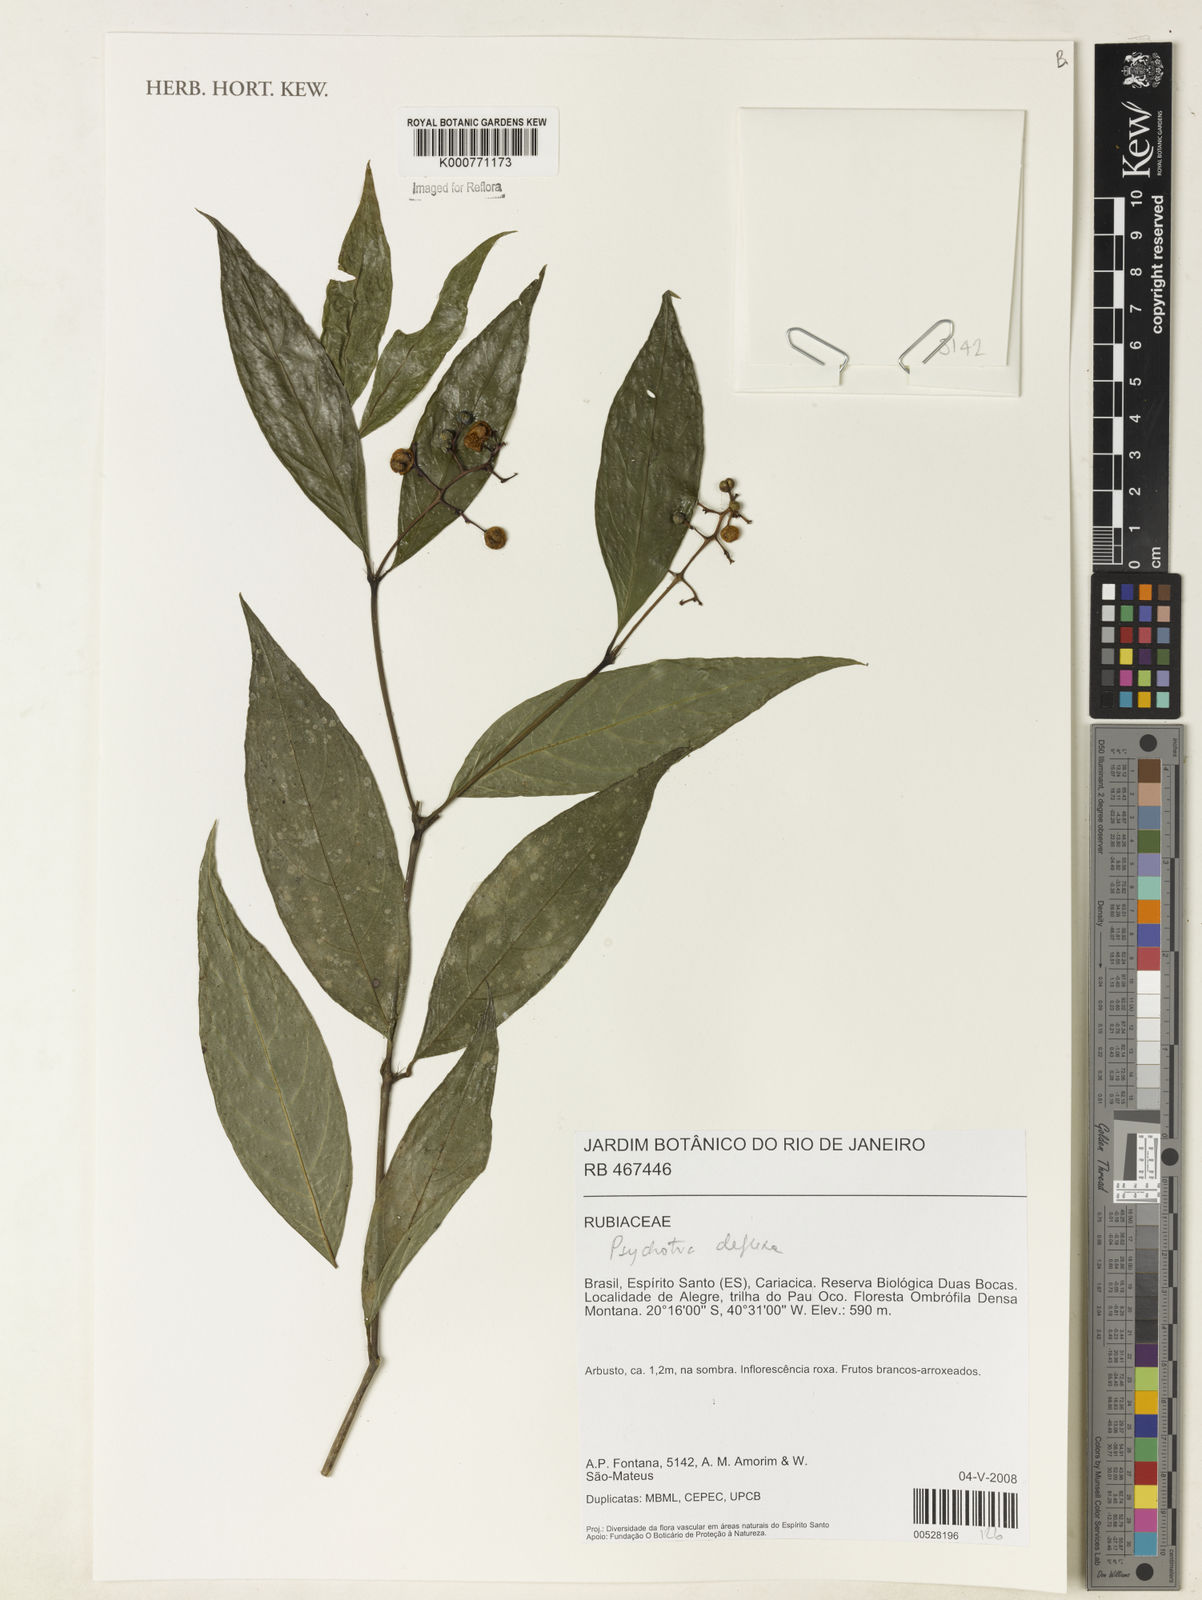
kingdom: Plantae
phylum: Tracheophyta
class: Magnoliopsida
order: Gentianales
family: Rubiaceae
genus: Palicourea
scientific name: Palicourea deflexa
